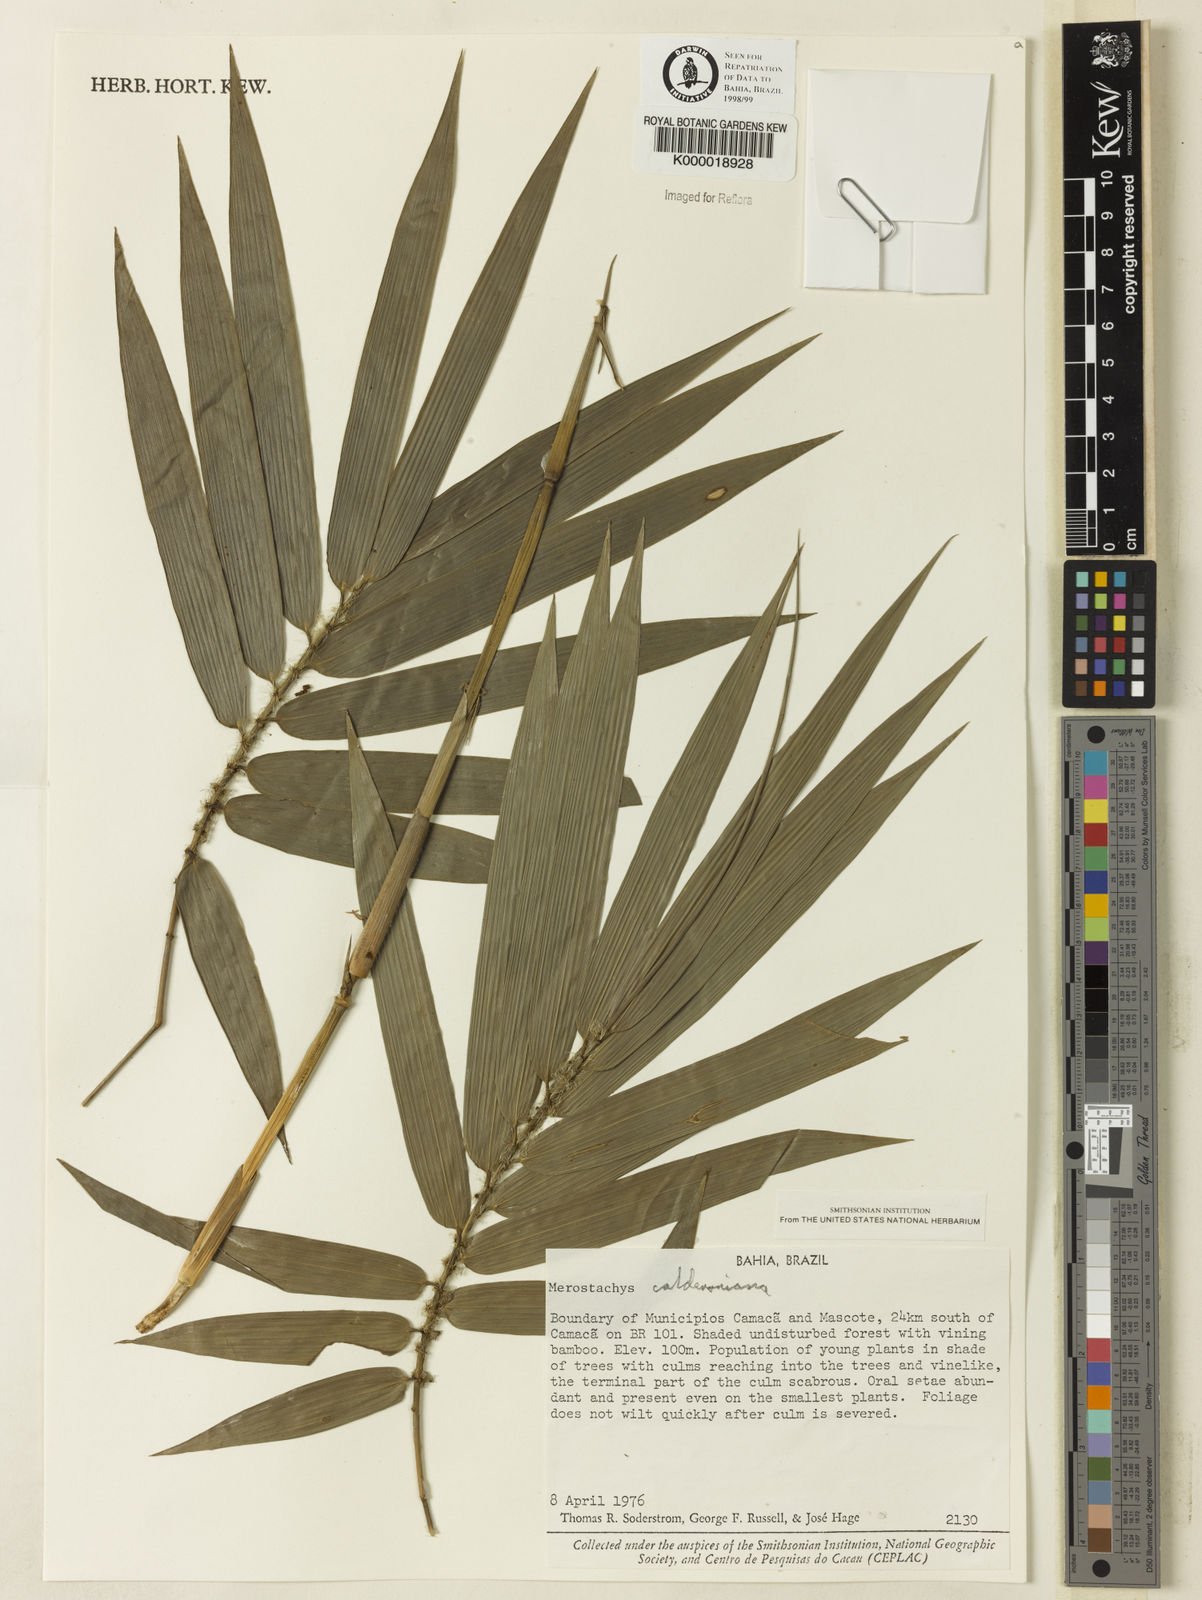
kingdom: Plantae
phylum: Tracheophyta
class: Liliopsida
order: Poales
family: Poaceae
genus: Merostachys
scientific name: Merostachys calderoniana
